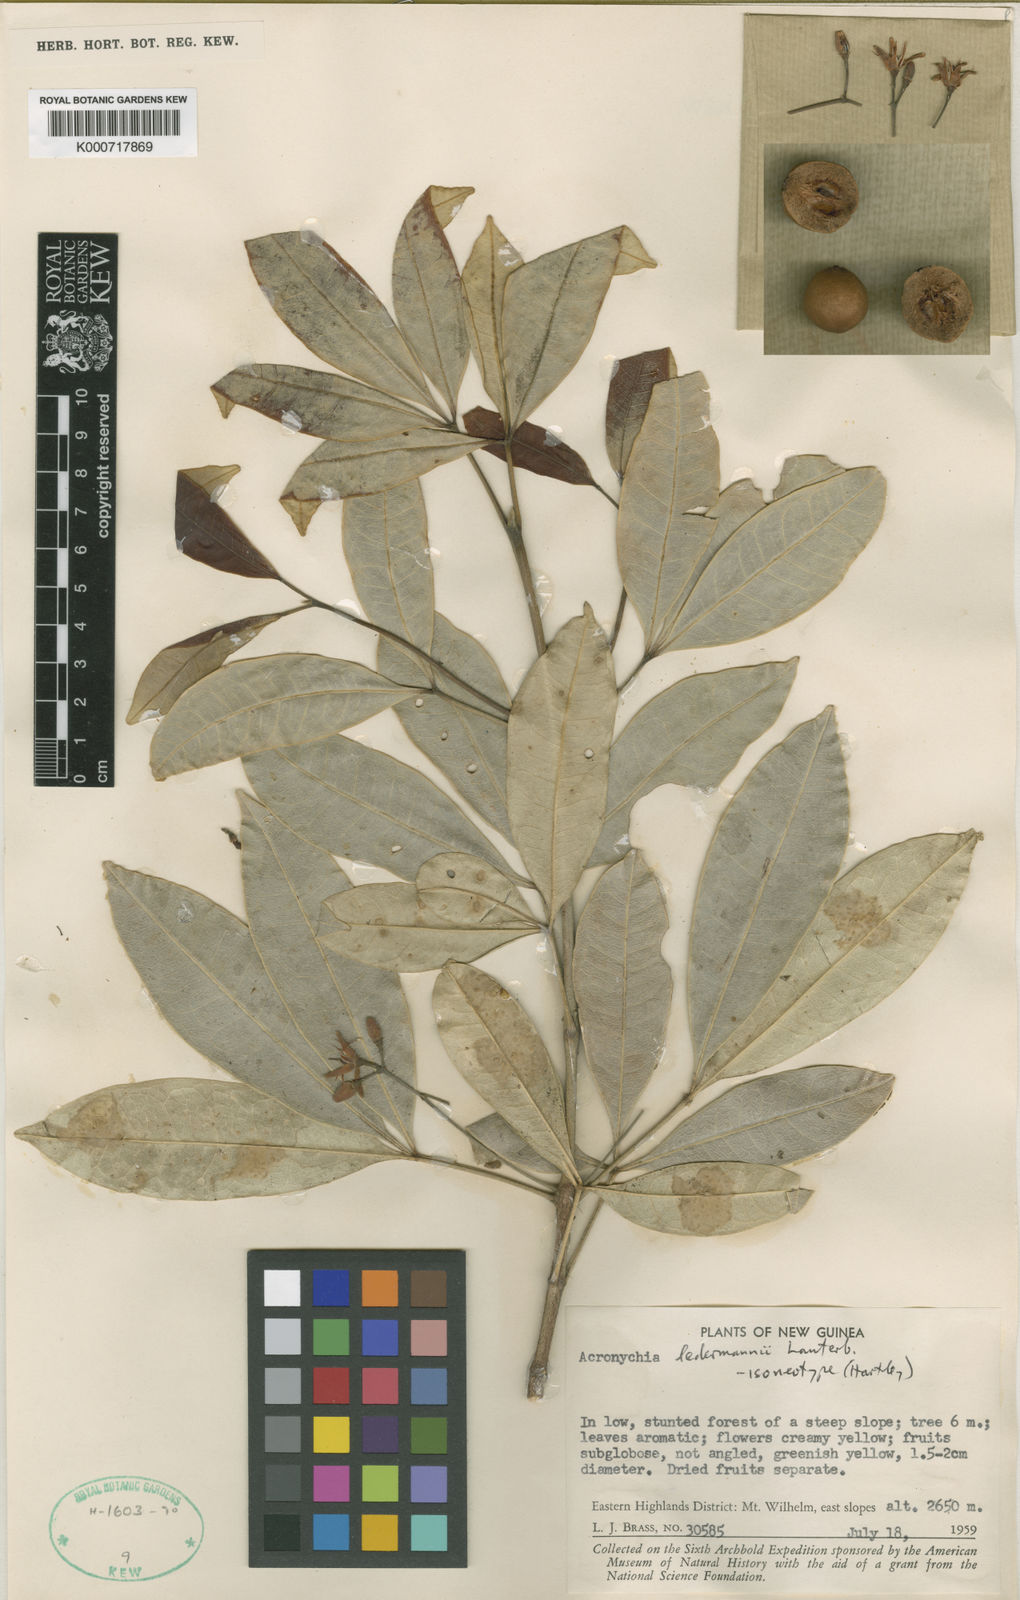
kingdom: Plantae
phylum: Tracheophyta
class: Magnoliopsida
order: Sapindales
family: Rutaceae
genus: Acronychia
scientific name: Acronychia ledermannii
